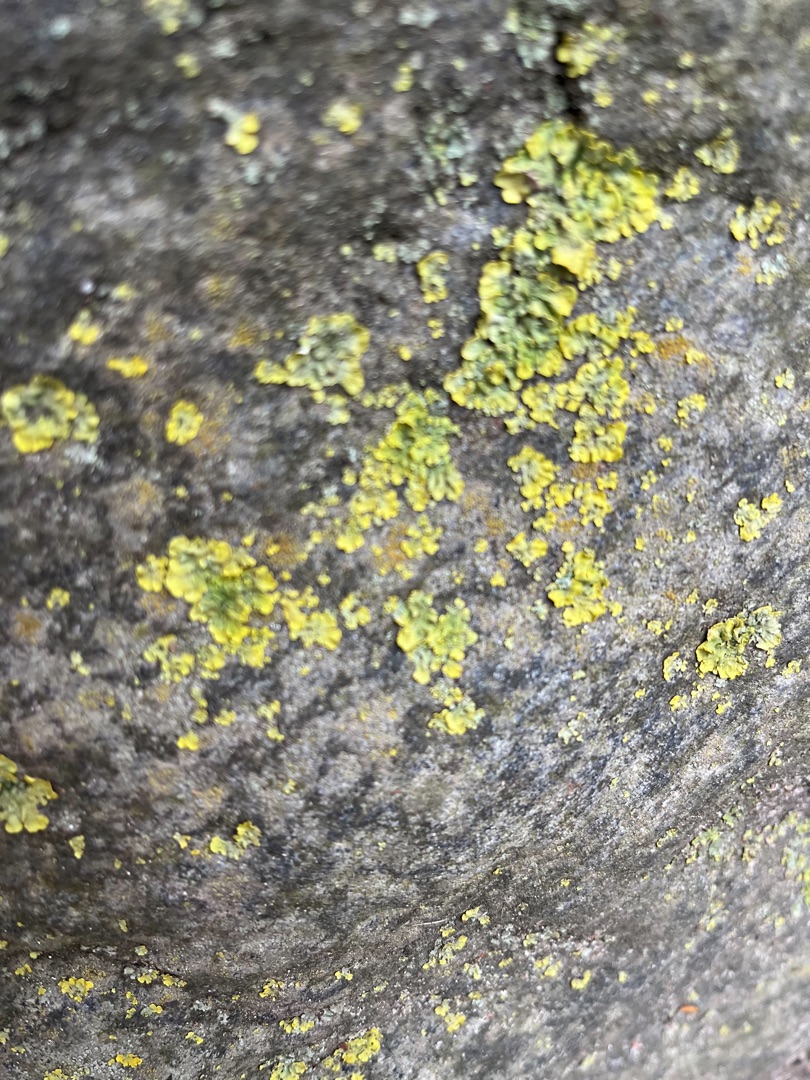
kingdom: Fungi
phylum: Ascomycota
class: Lecanoromycetes
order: Teloschistales
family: Teloschistaceae
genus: Xanthoria
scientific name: Xanthoria parietina
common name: Almindelig væggelav
